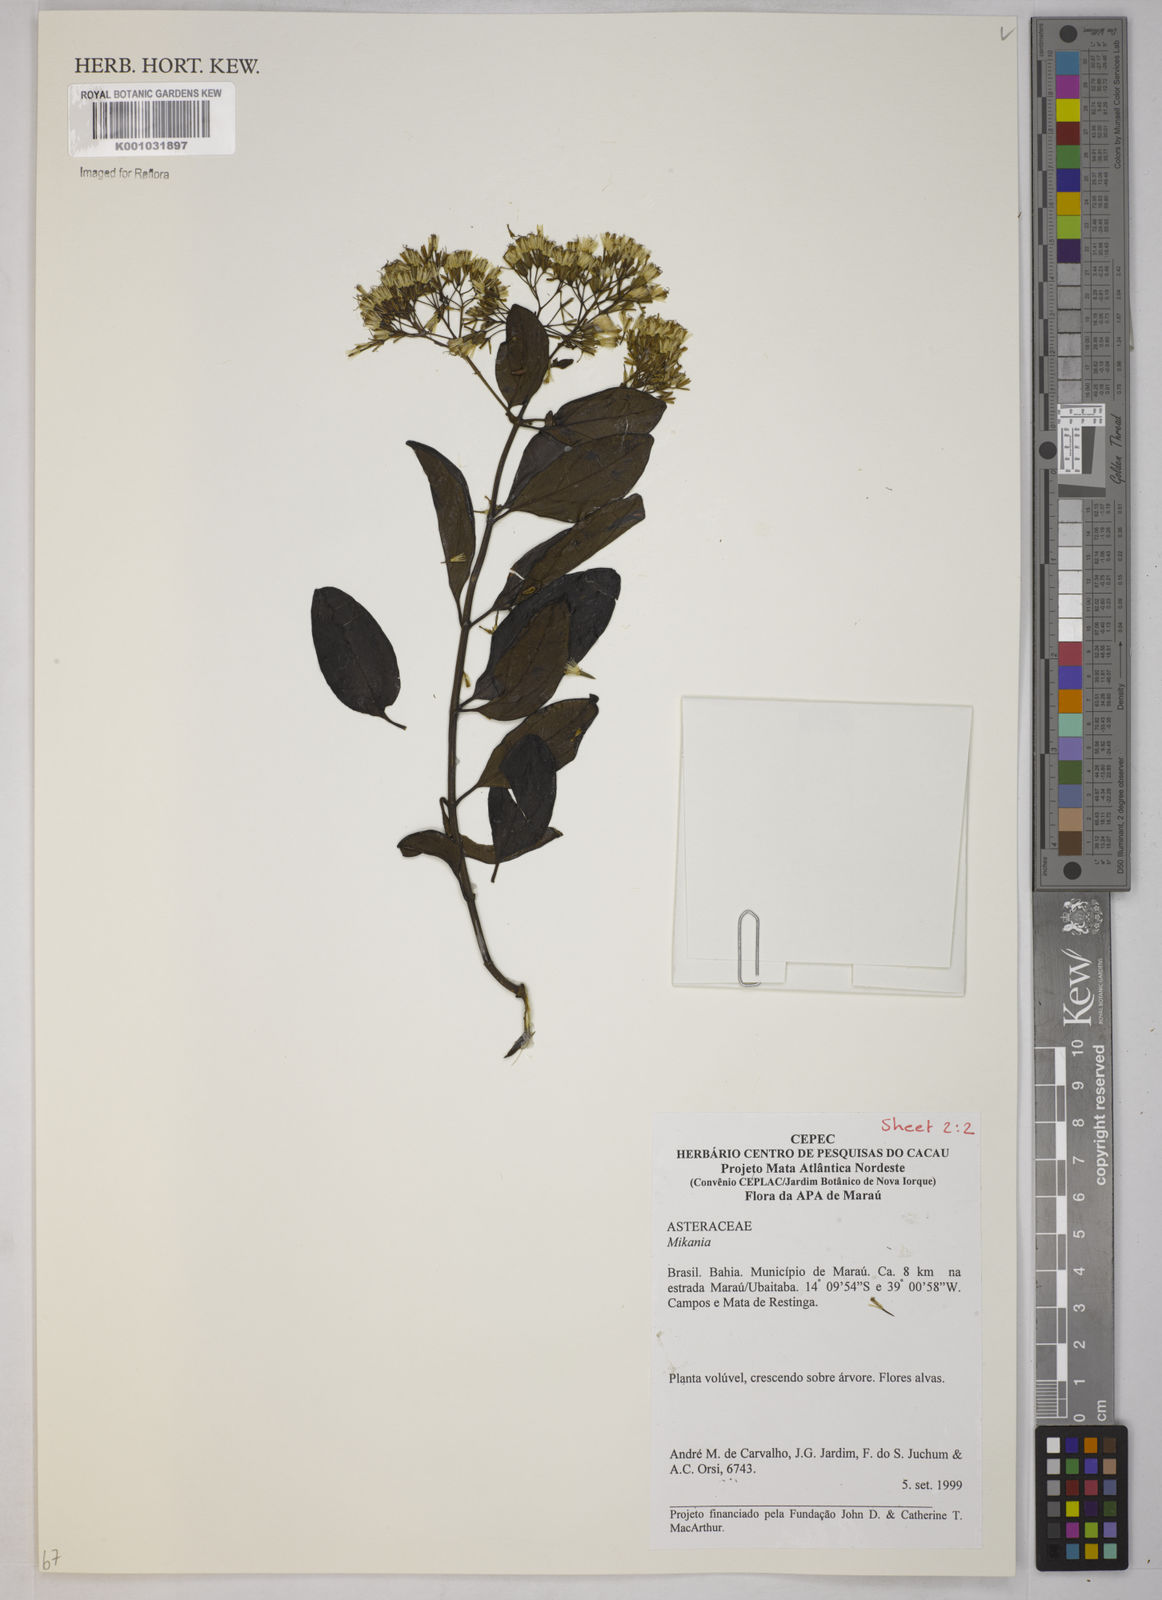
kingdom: Plantae
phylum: Tracheophyta
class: Magnoliopsida
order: Asterales
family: Asteraceae
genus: Mikania
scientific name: Mikania
